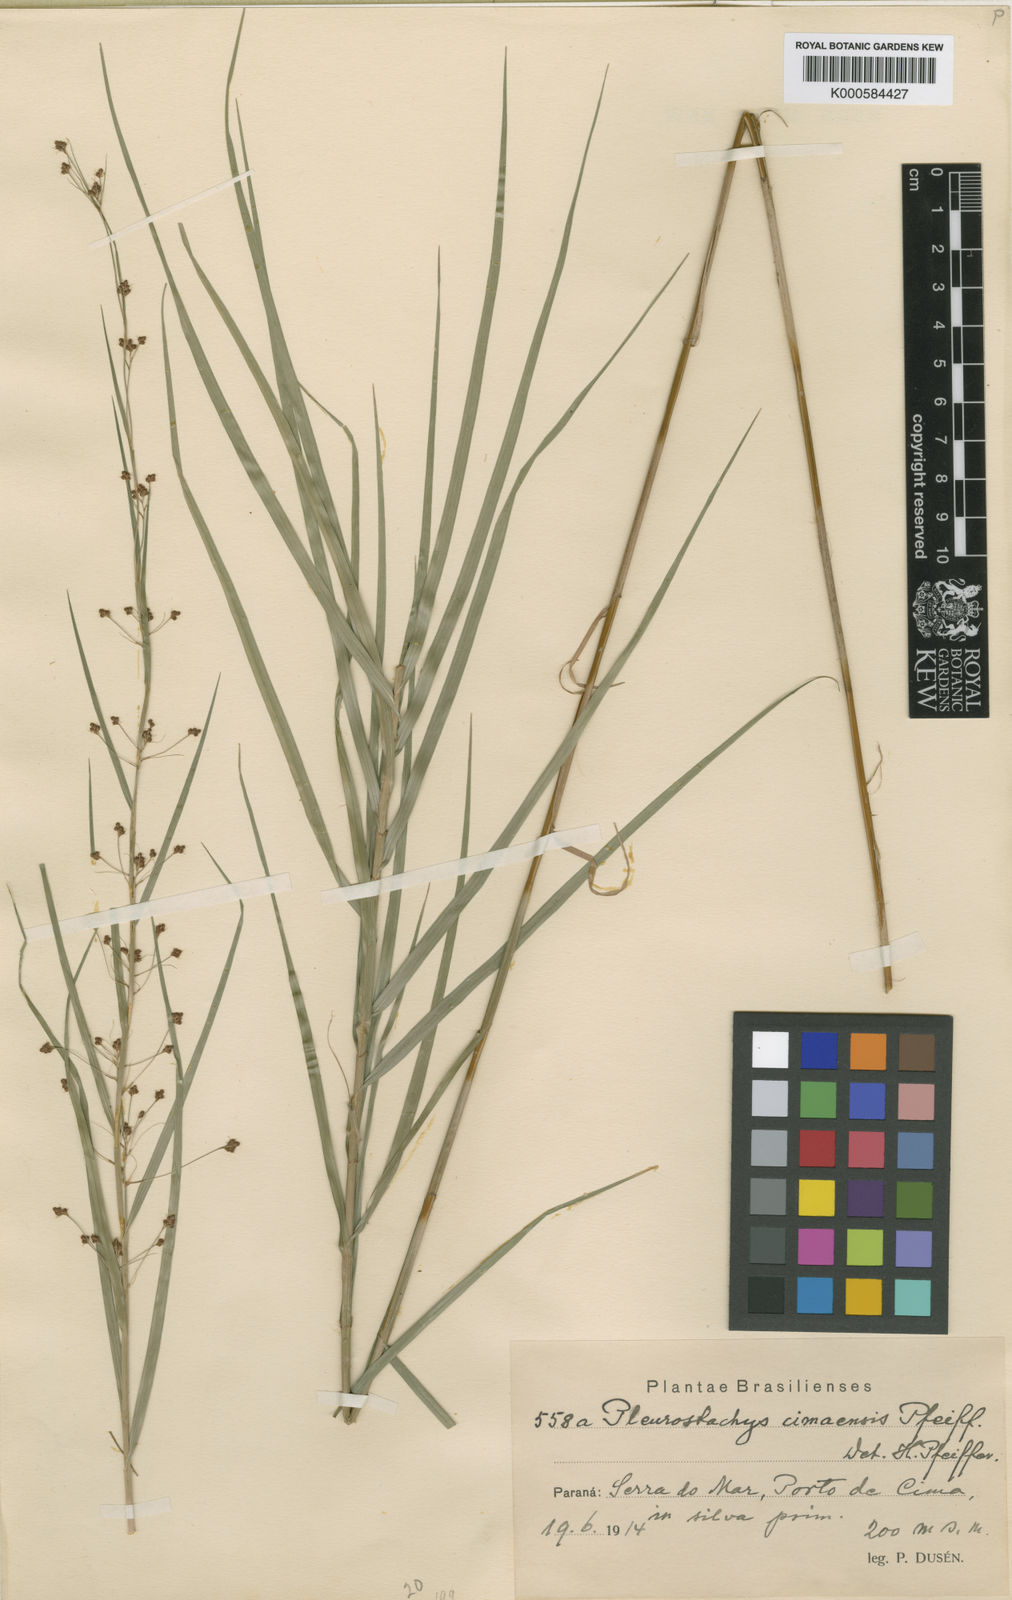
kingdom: Plantae
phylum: Tracheophyta
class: Liliopsida
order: Poales
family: Cyperaceae
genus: Rhynchospora
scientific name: Rhynchospora foliosa
